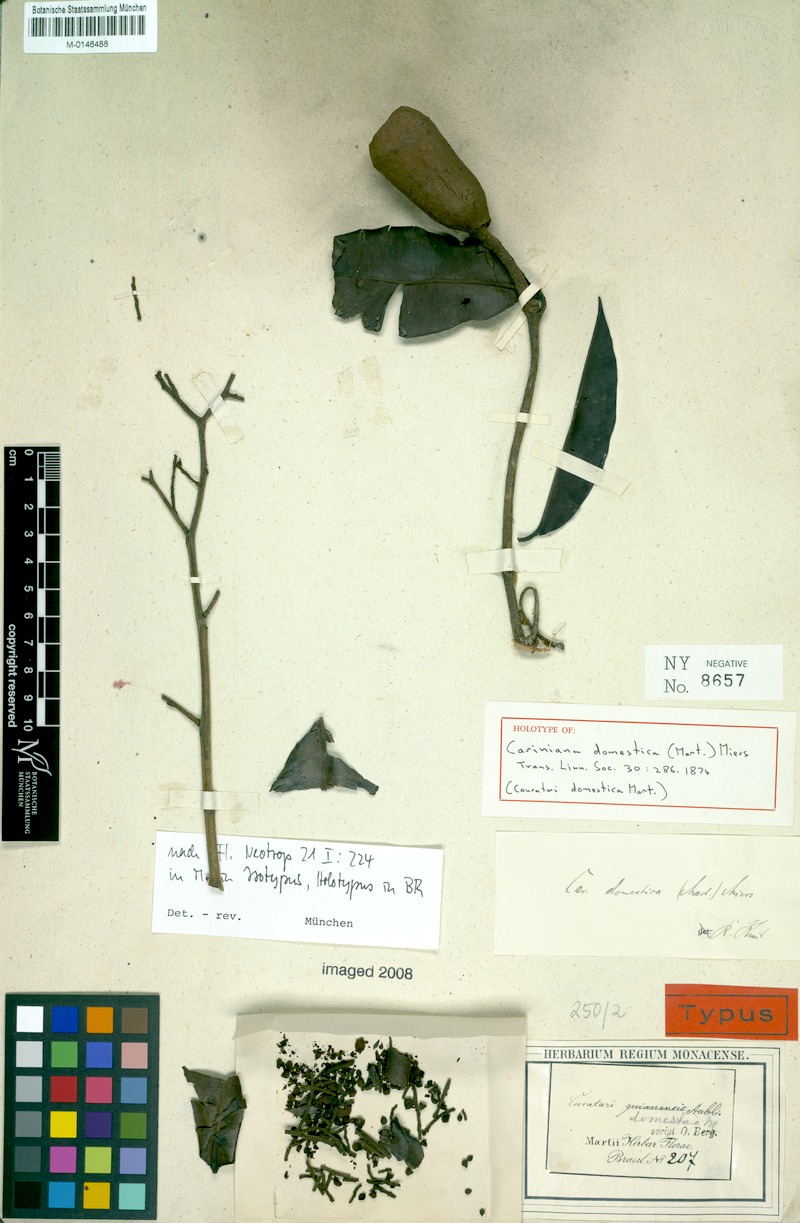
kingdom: Plantae
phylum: Tracheophyta
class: Magnoliopsida
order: Ericales
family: Lecythidaceae
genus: Cariniana
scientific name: Cariniana domestica
